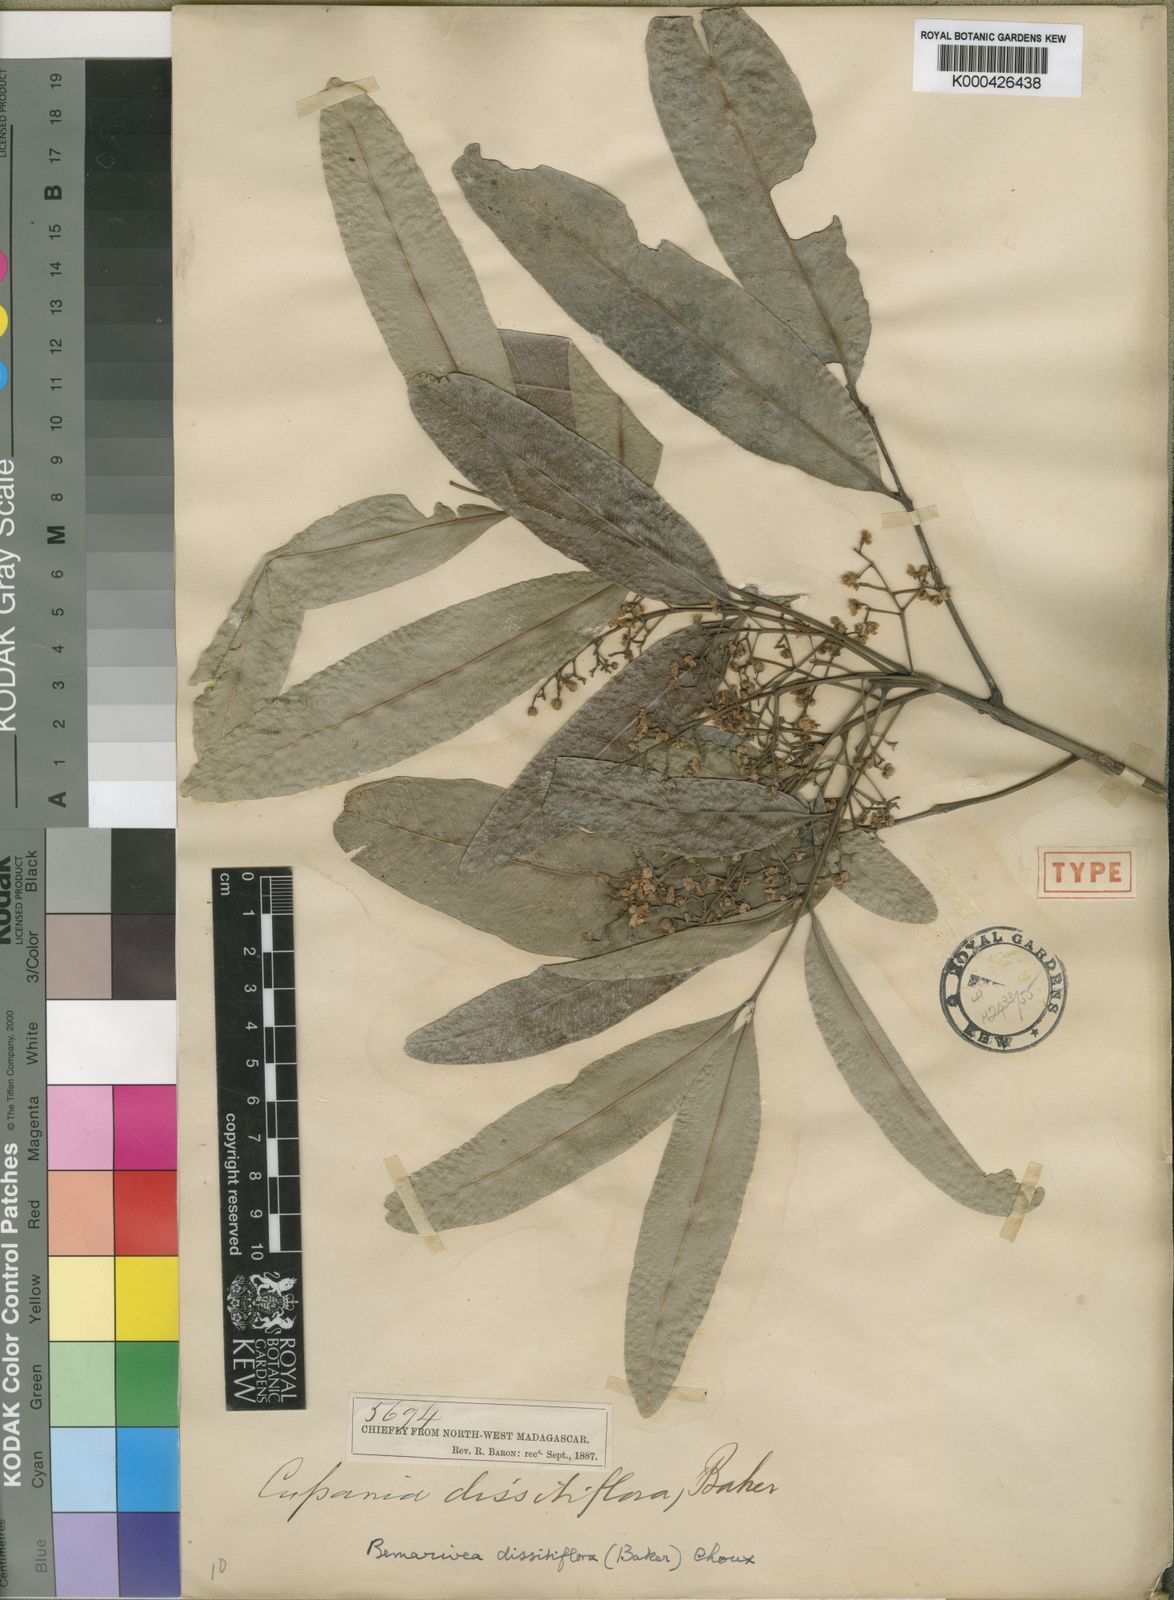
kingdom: Plantae
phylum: Tracheophyta
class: Magnoliopsida
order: Sapindales
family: Sapindaceae
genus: Tina
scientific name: Tina dissitiflora
